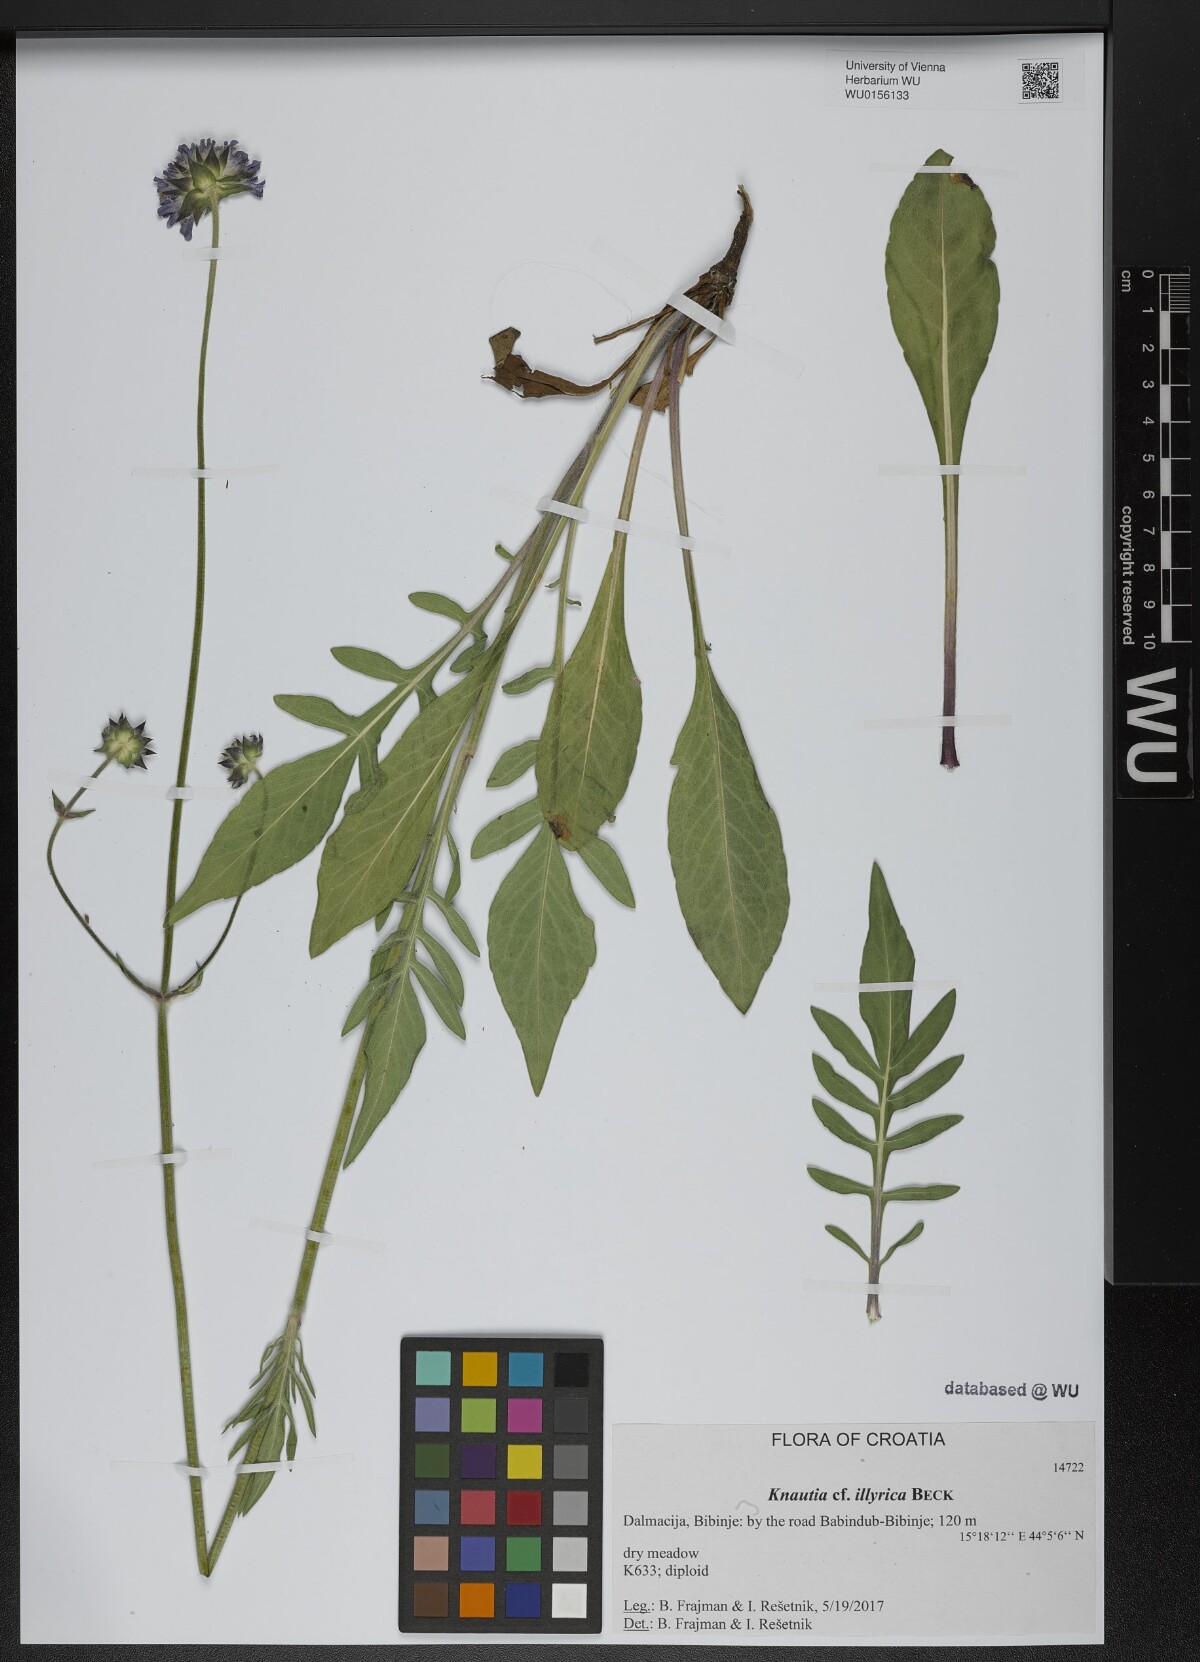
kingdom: Plantae
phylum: Tracheophyta
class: Magnoliopsida
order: Dipsacales
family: Caprifoliaceae
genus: Knautia
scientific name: Knautia illyrica
